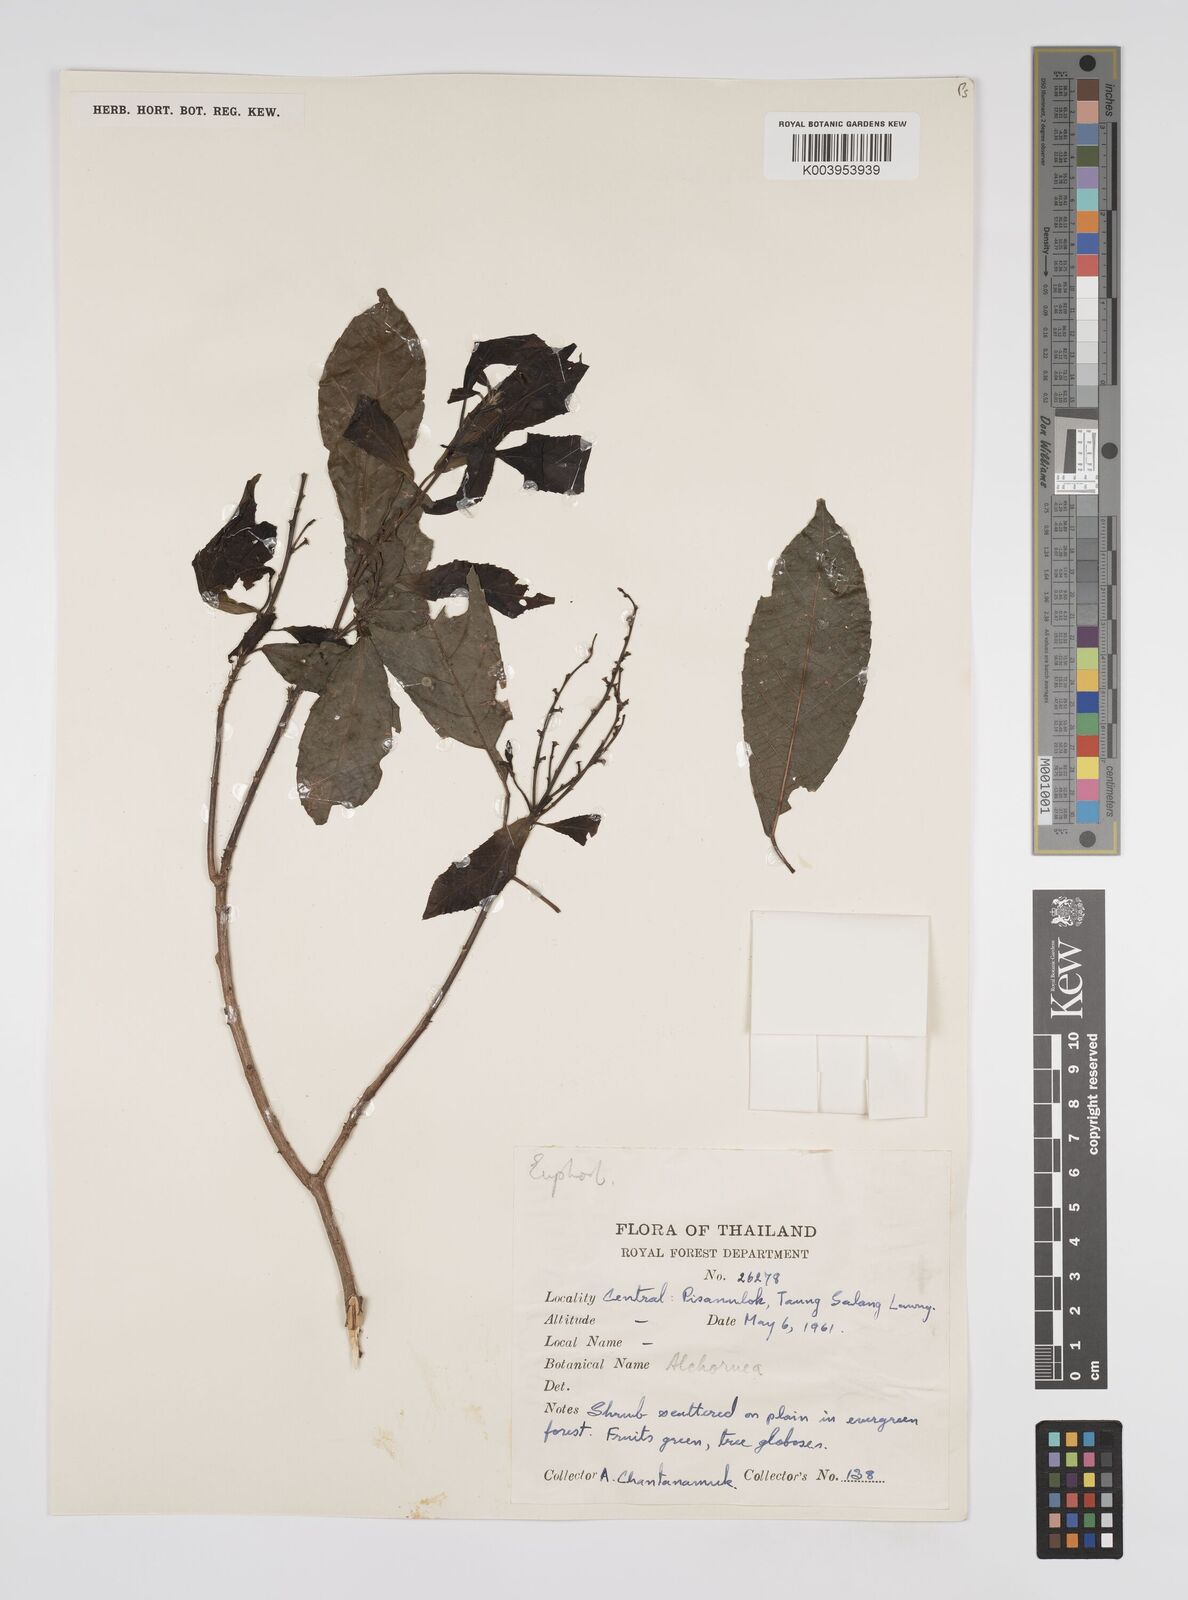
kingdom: Plantae
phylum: Tracheophyta
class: Magnoliopsida
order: Malpighiales
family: Euphorbiaceae
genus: Alchornea
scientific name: Alchornea rugosa
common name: Alchorntree
